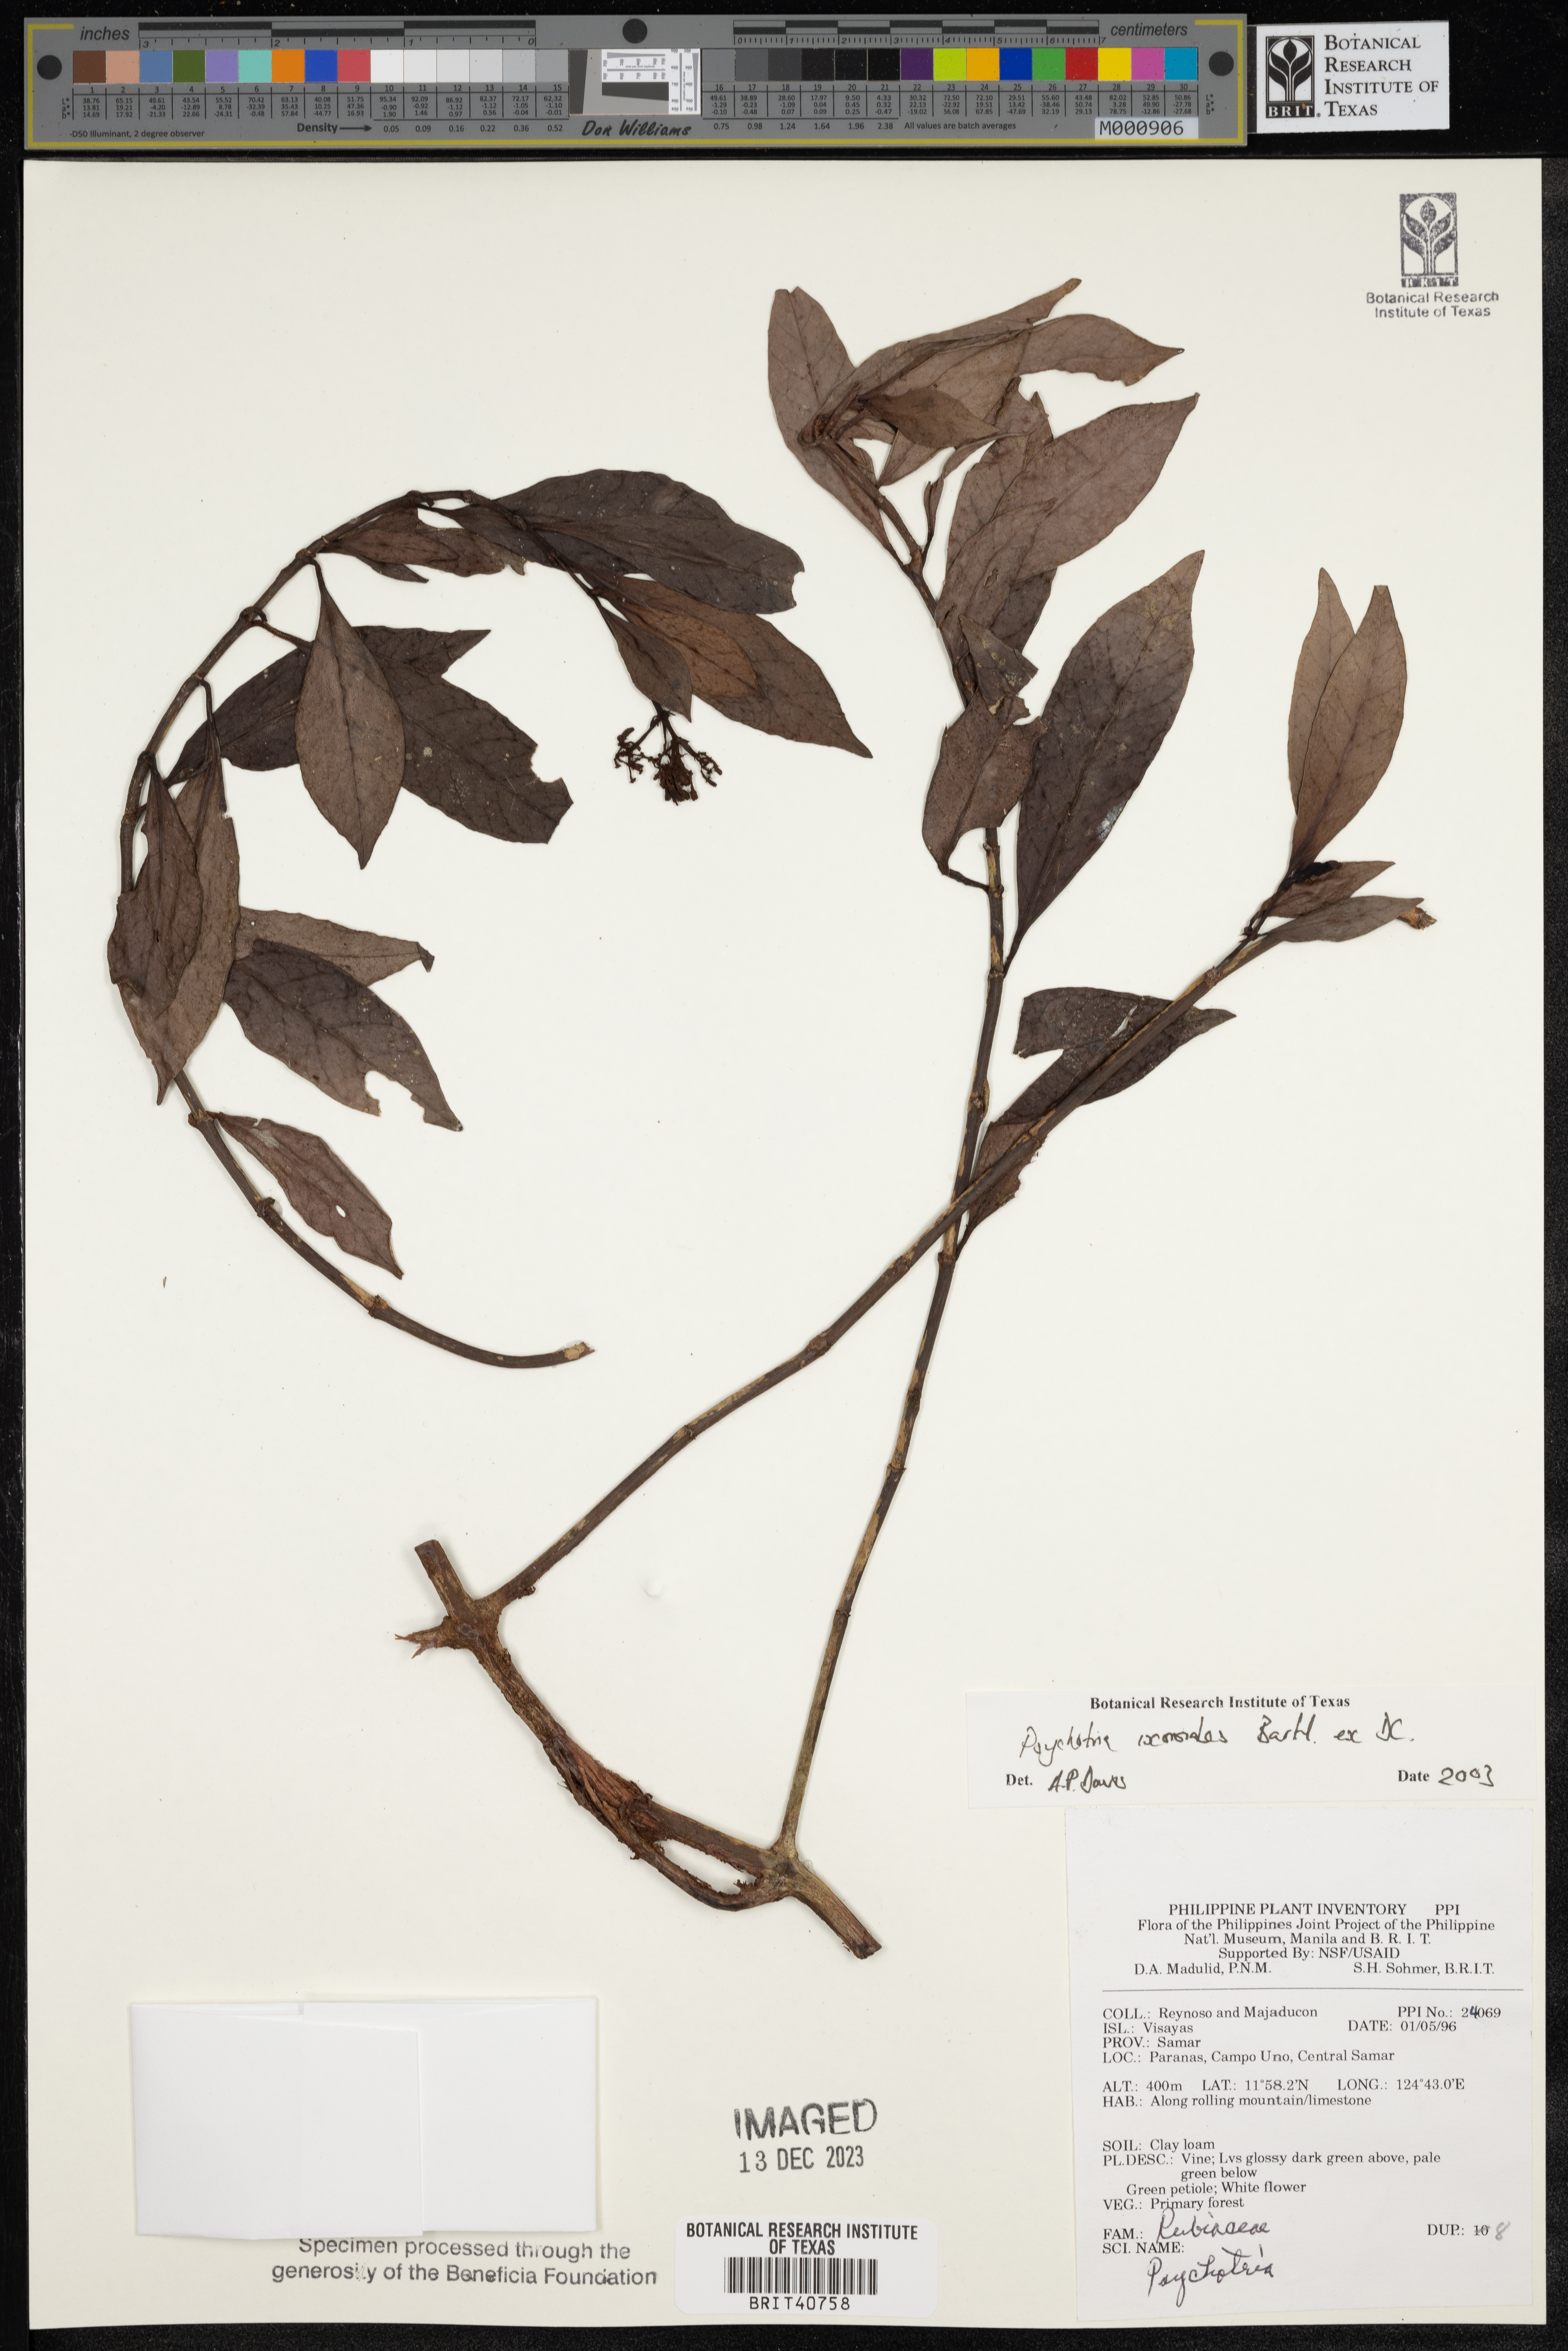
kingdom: Plantae
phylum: Tracheophyta
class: Magnoliopsida
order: Gentianales
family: Rubiaceae
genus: Psychotria
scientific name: Psychotria ixoroides
